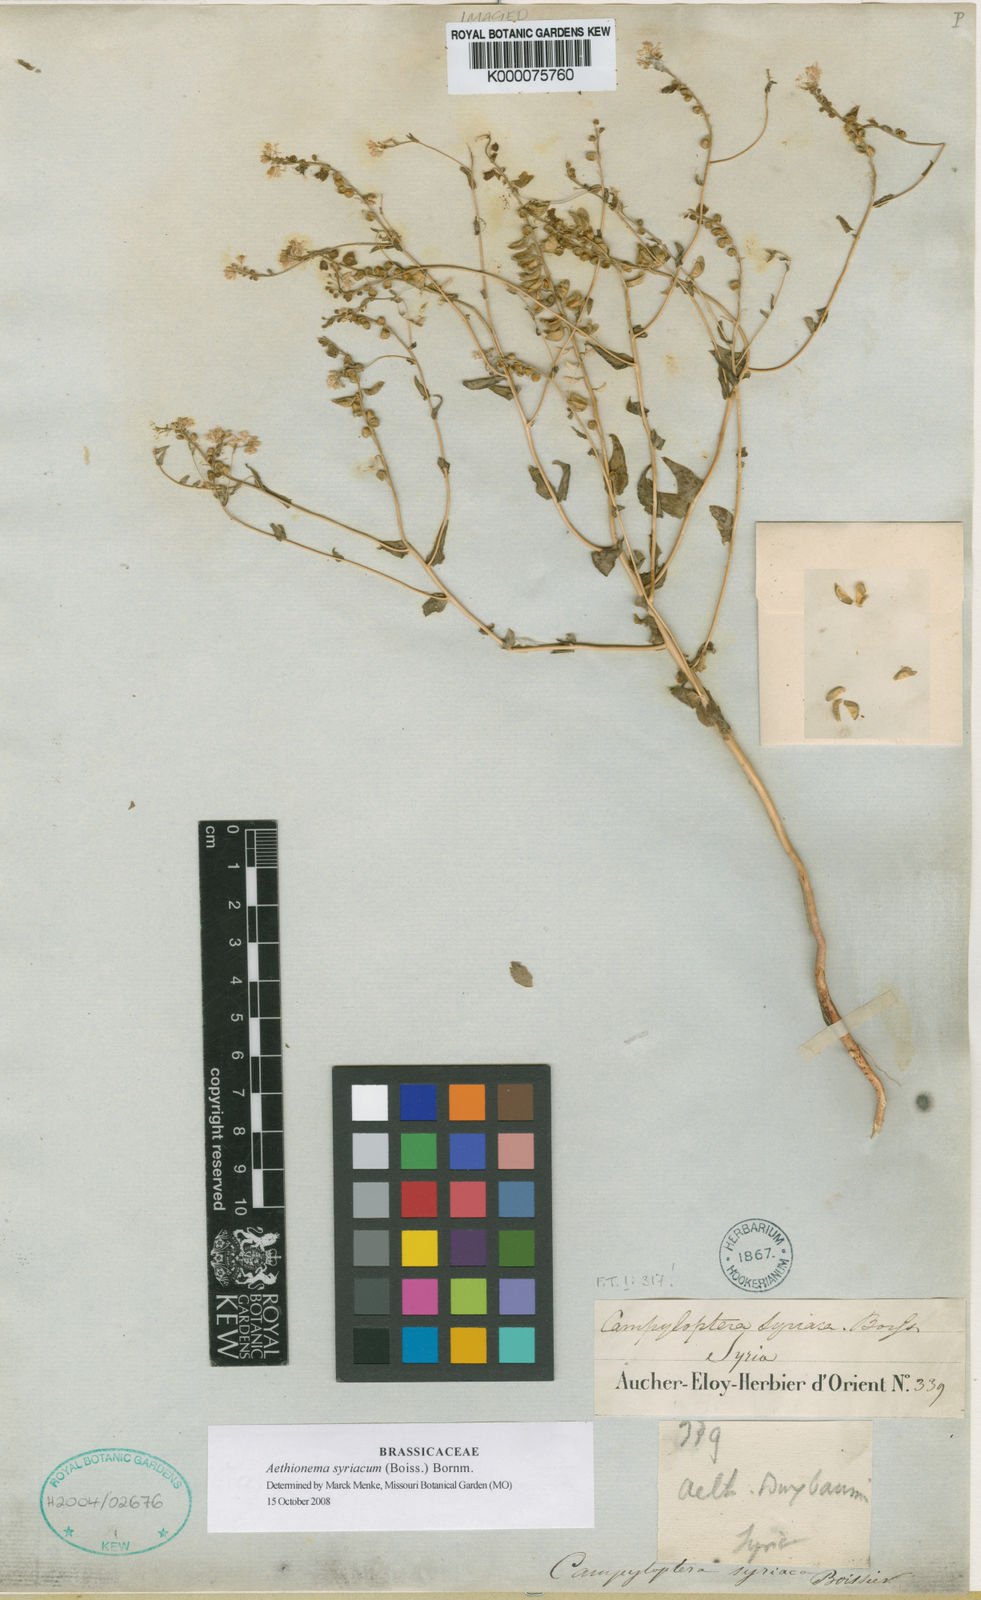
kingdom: Plantae
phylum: Tracheophyta
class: Magnoliopsida
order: Brassicales
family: Brassicaceae
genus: Aethionema
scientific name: Aethionema syriacum
